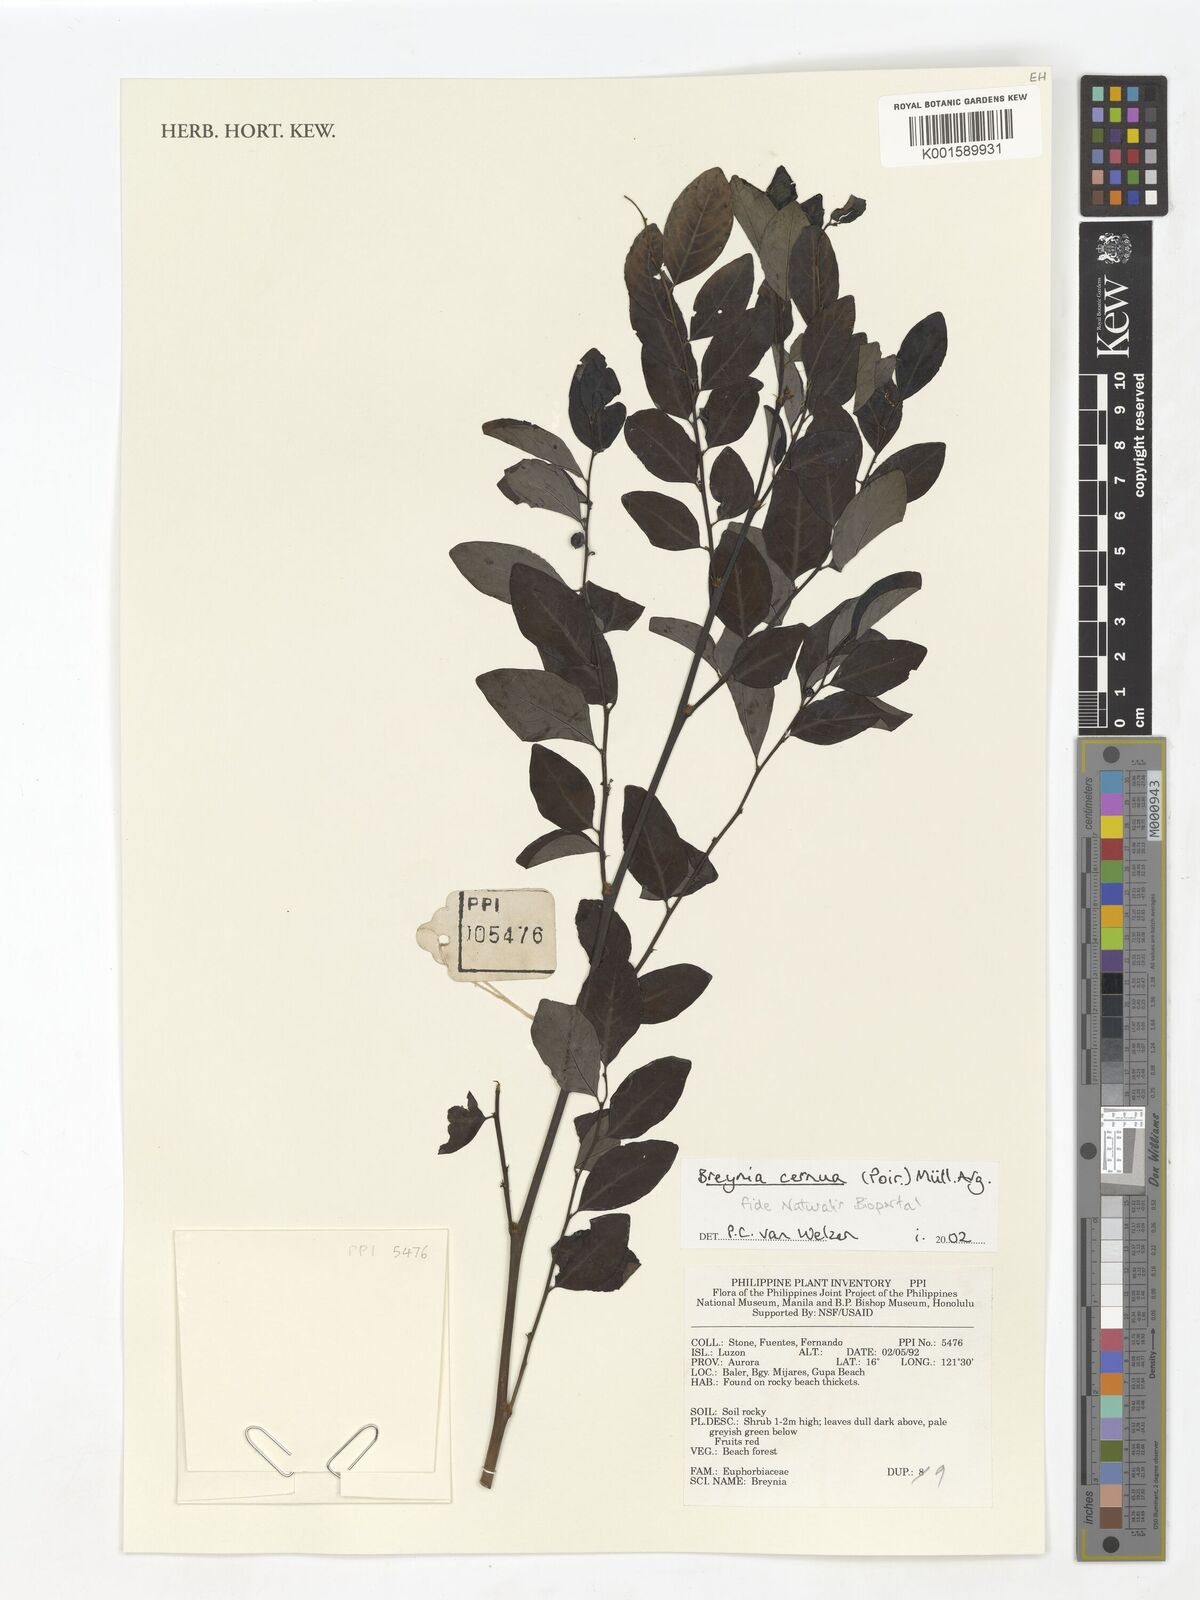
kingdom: Plantae
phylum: Tracheophyta
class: Magnoliopsida
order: Malpighiales
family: Phyllanthaceae
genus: Breynia
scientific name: Breynia cernua
